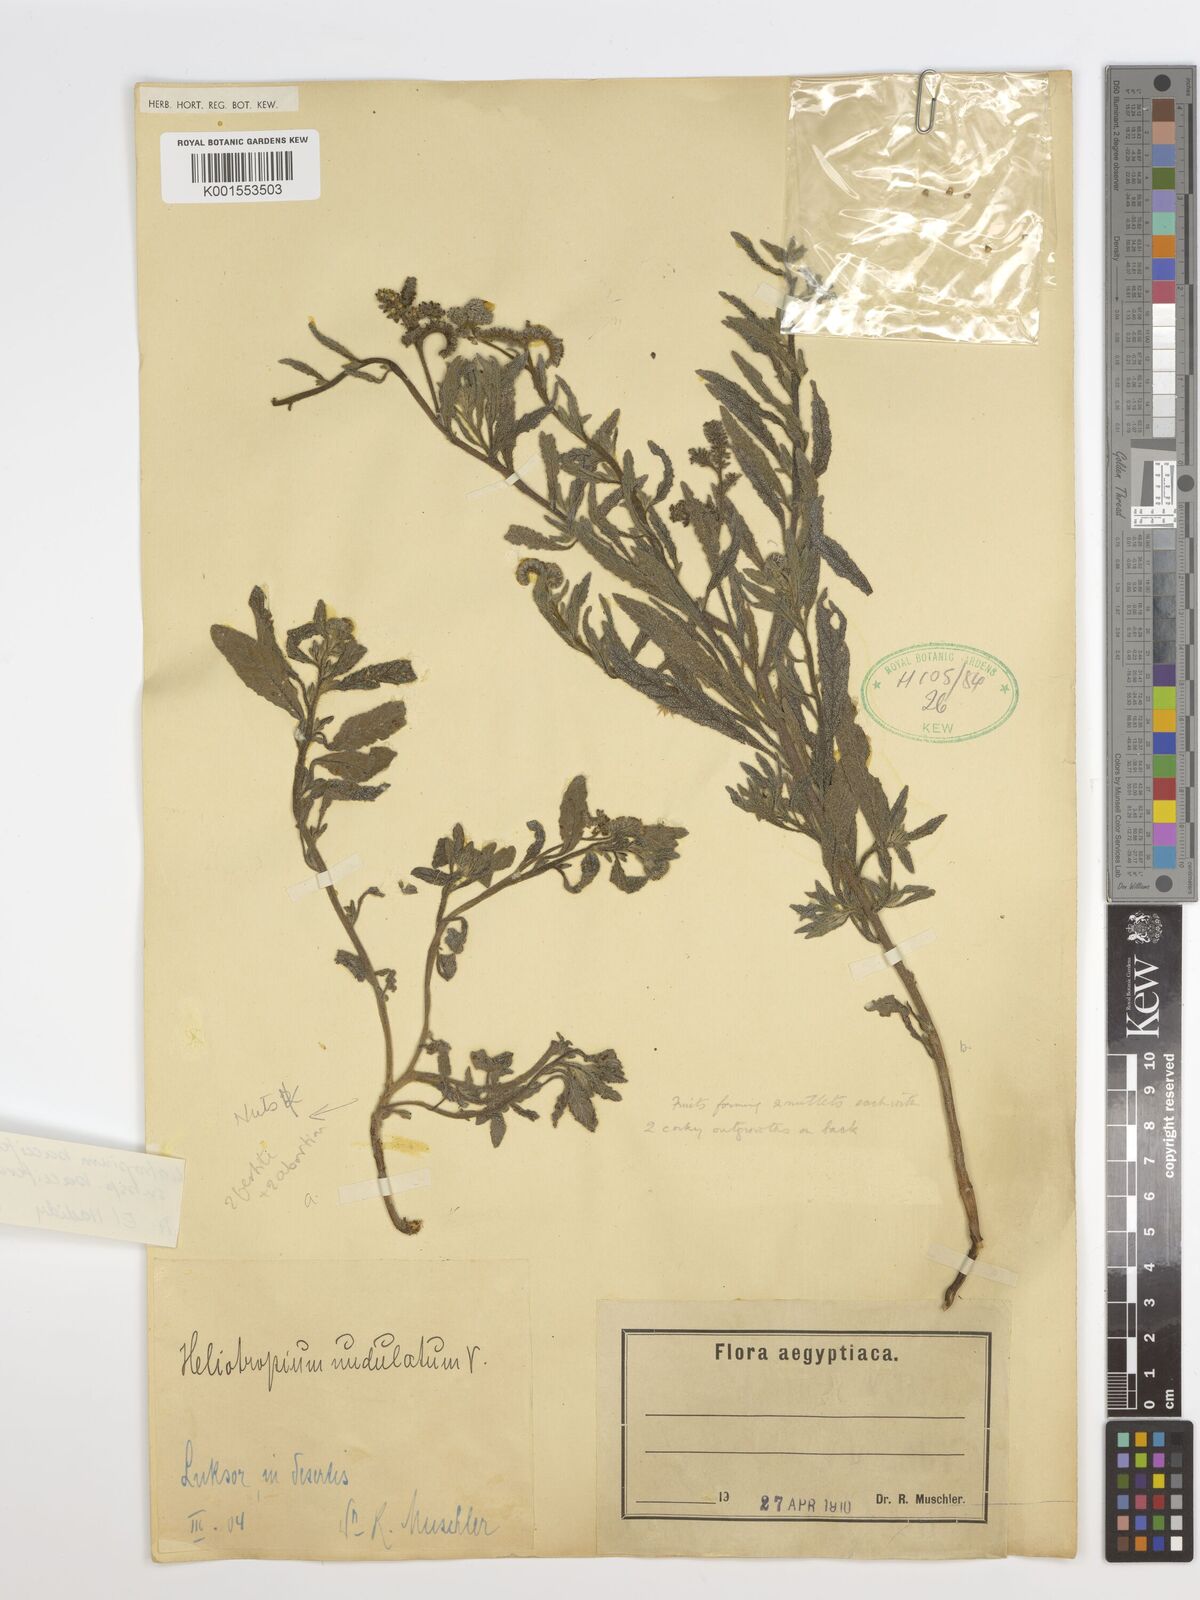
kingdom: Plantae
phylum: Tracheophyta
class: Magnoliopsida
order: Boraginales
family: Heliotropiaceae
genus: Heliotropium
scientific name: Heliotropium bacciferum
